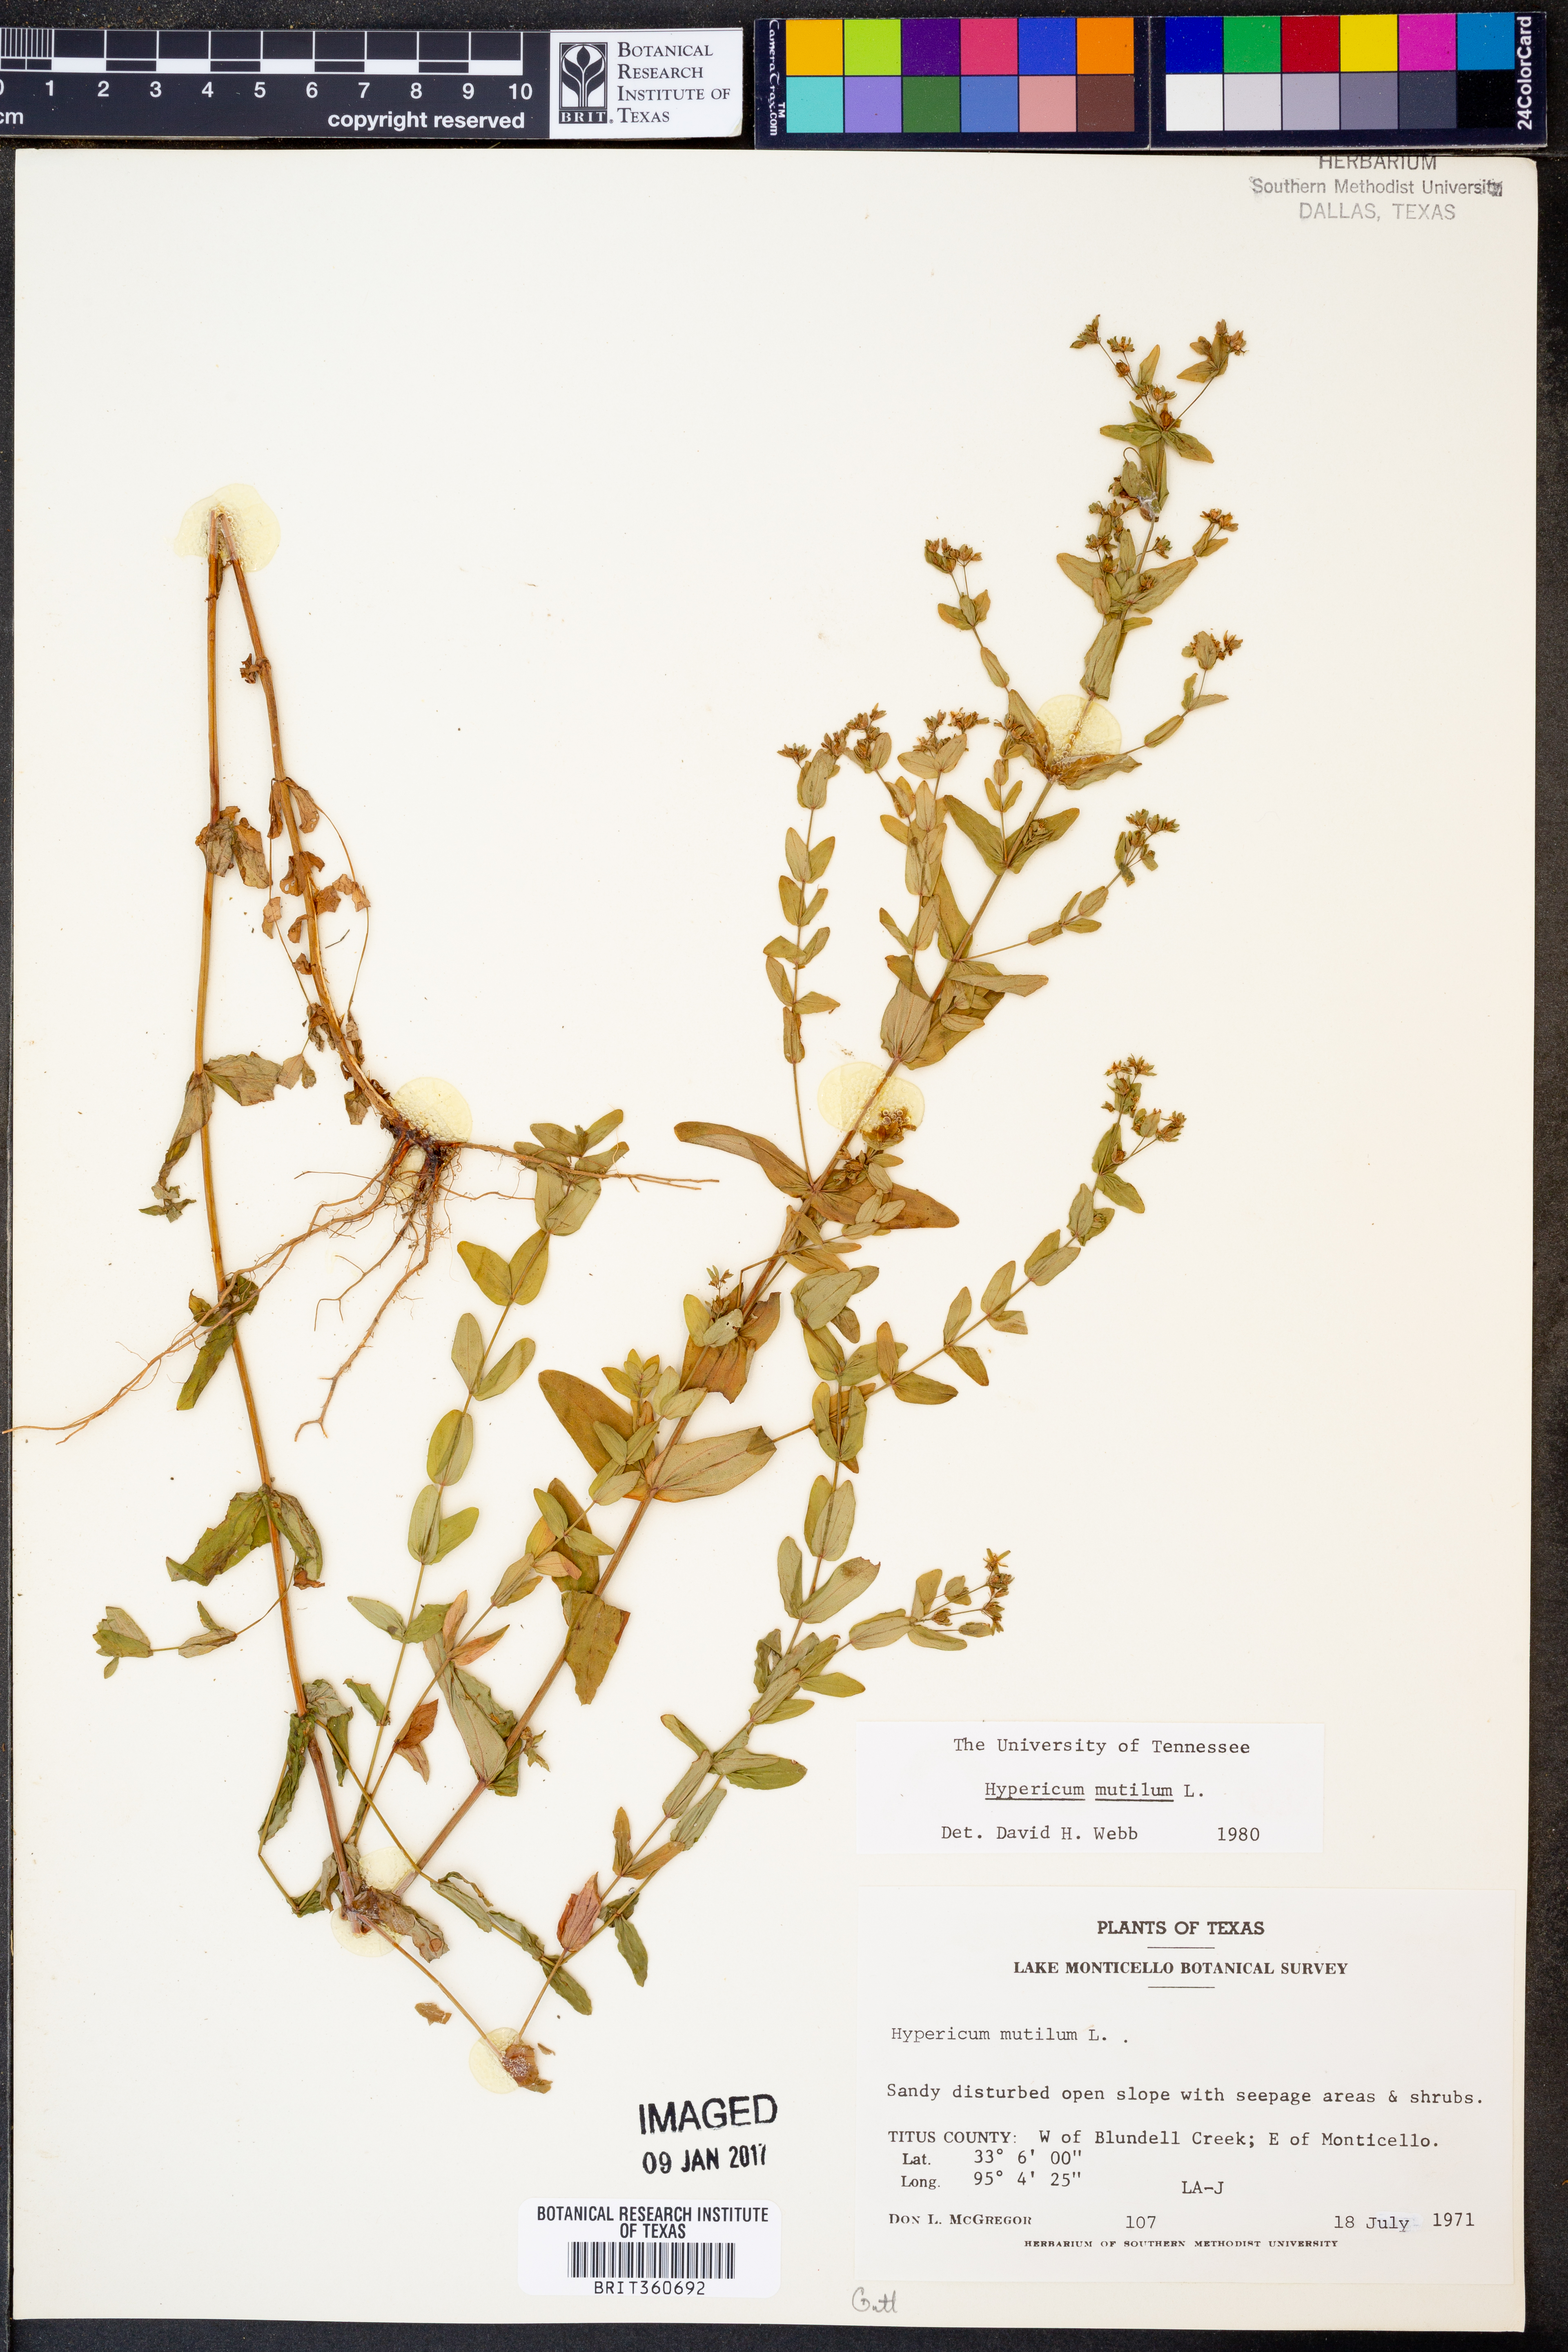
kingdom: Plantae
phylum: Tracheophyta
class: Magnoliopsida
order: Malpighiales
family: Hypericaceae
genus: Hypericum
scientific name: Hypericum mutilum
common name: Dwarf st. john's-wort
